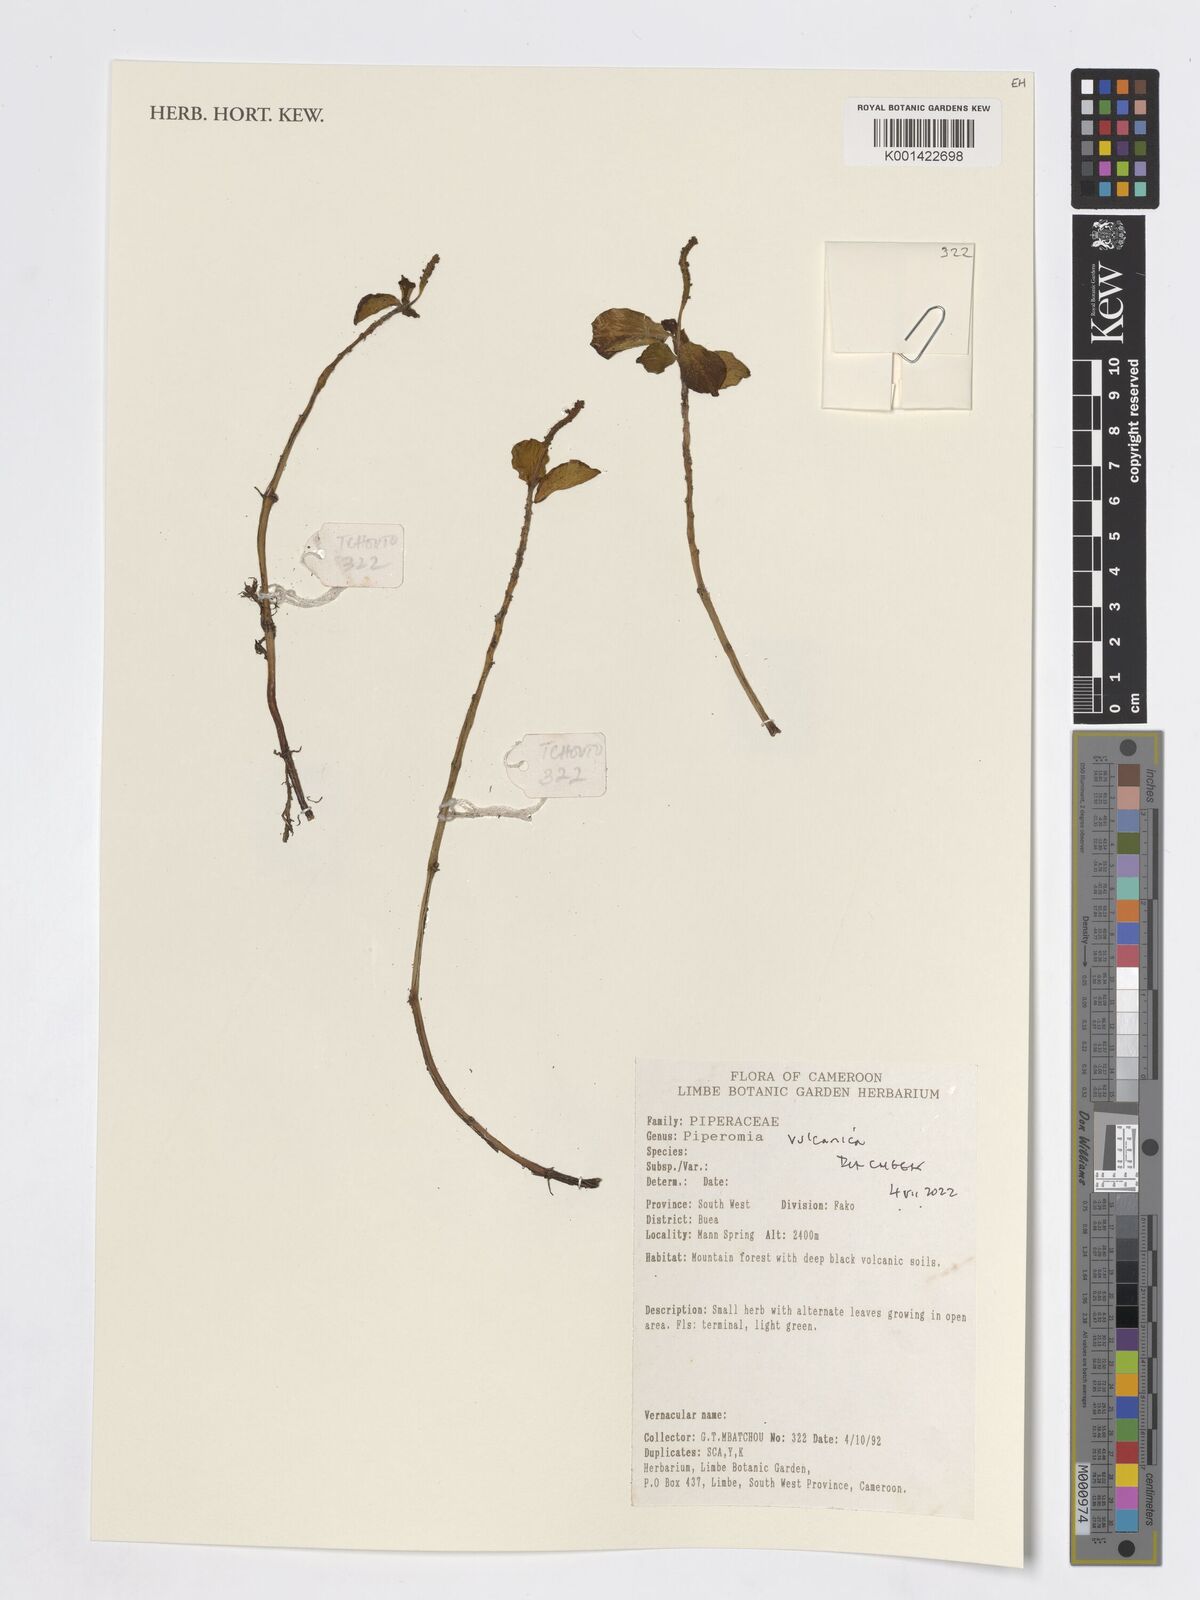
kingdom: Plantae
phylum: Tracheophyta
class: Magnoliopsida
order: Piperales
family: Piperaceae
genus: Peperomia
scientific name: Peperomia vulcanica
